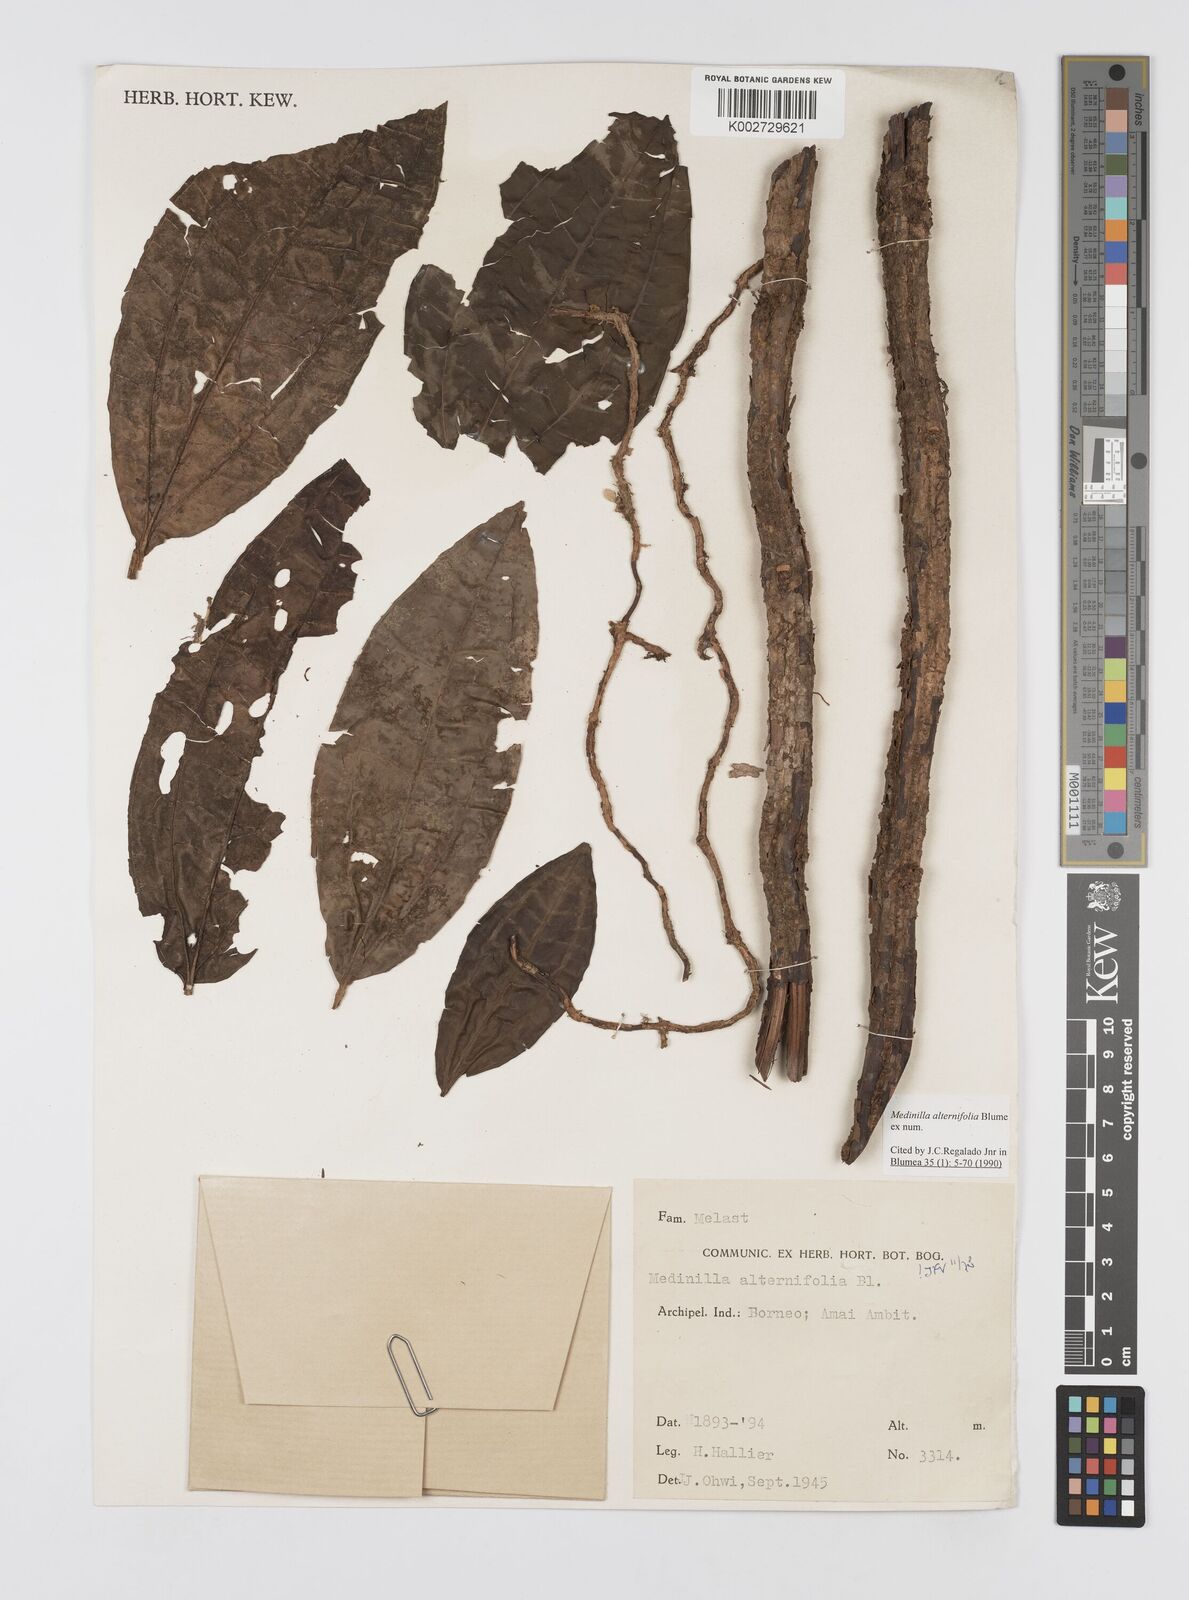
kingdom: Plantae
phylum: Tracheophyta
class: Magnoliopsida
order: Myrtales
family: Melastomataceae
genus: Heteroblemma
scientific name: Heteroblemma alternifolium
